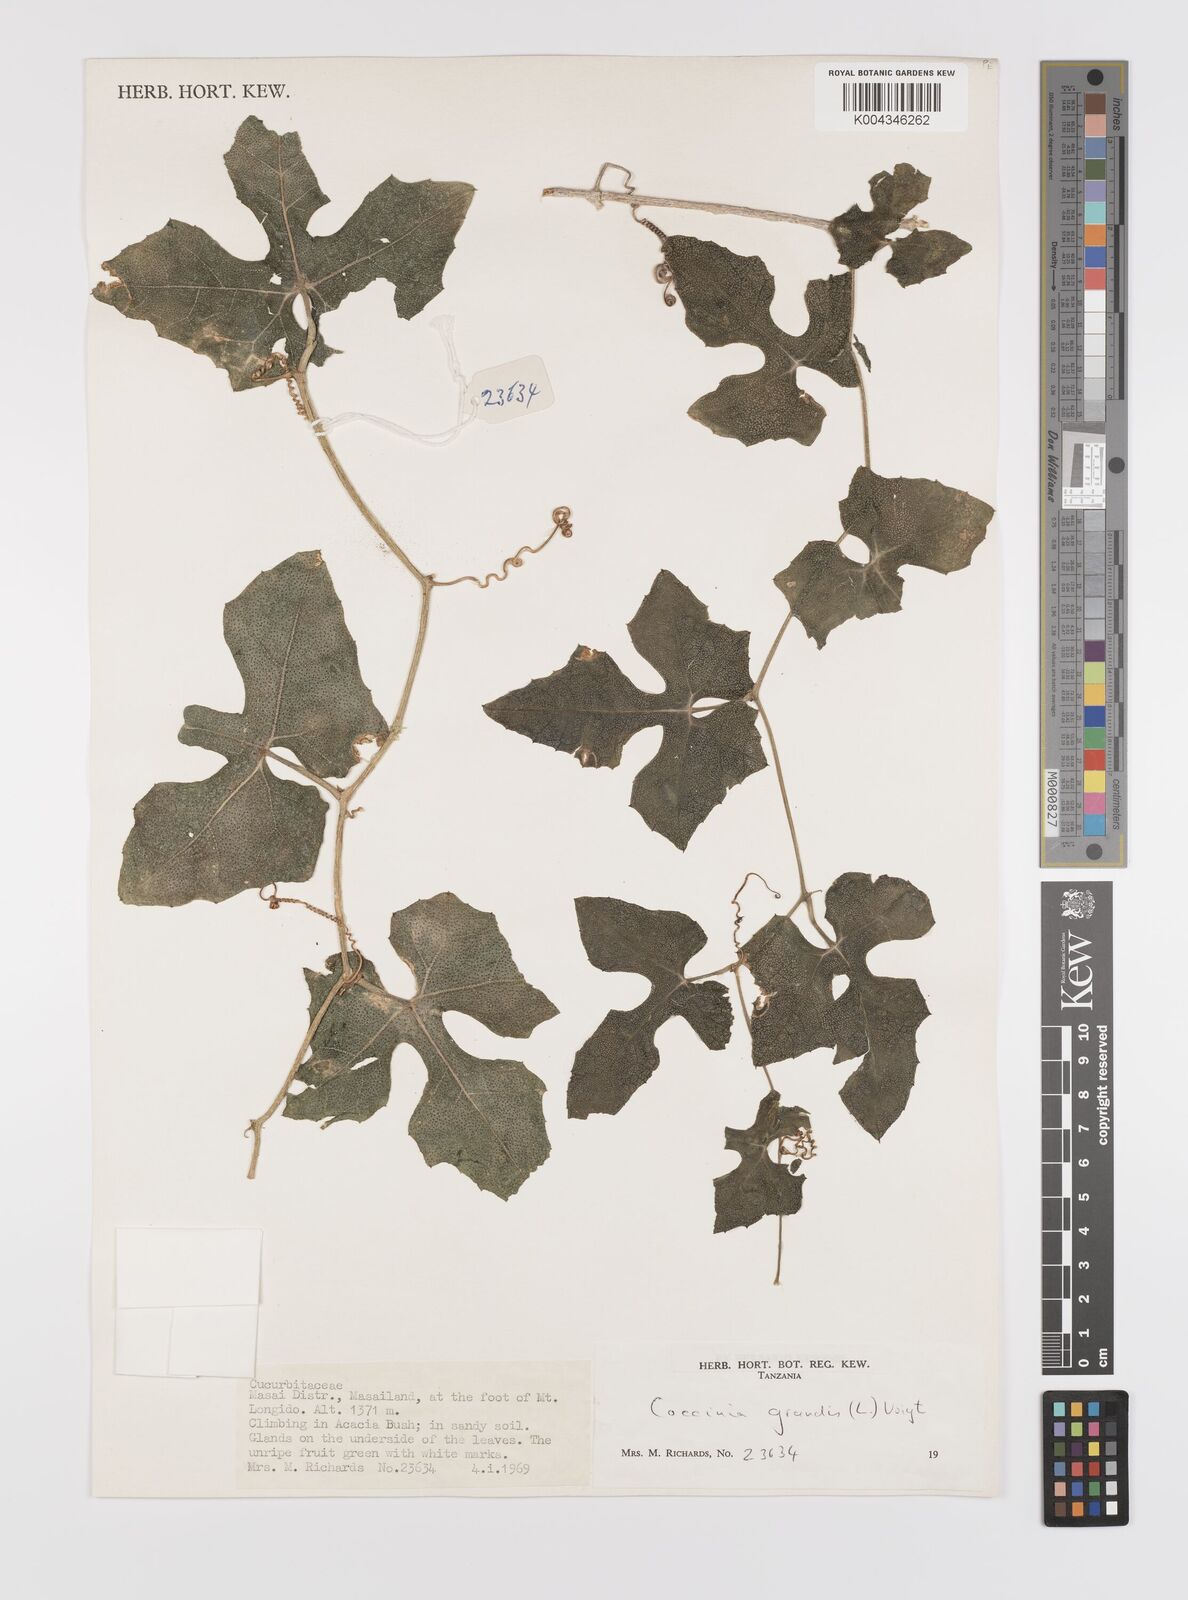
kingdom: Plantae
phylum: Tracheophyta
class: Magnoliopsida
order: Cucurbitales
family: Cucurbitaceae
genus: Coccinia
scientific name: Coccinia grandis
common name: Ivy gourd
